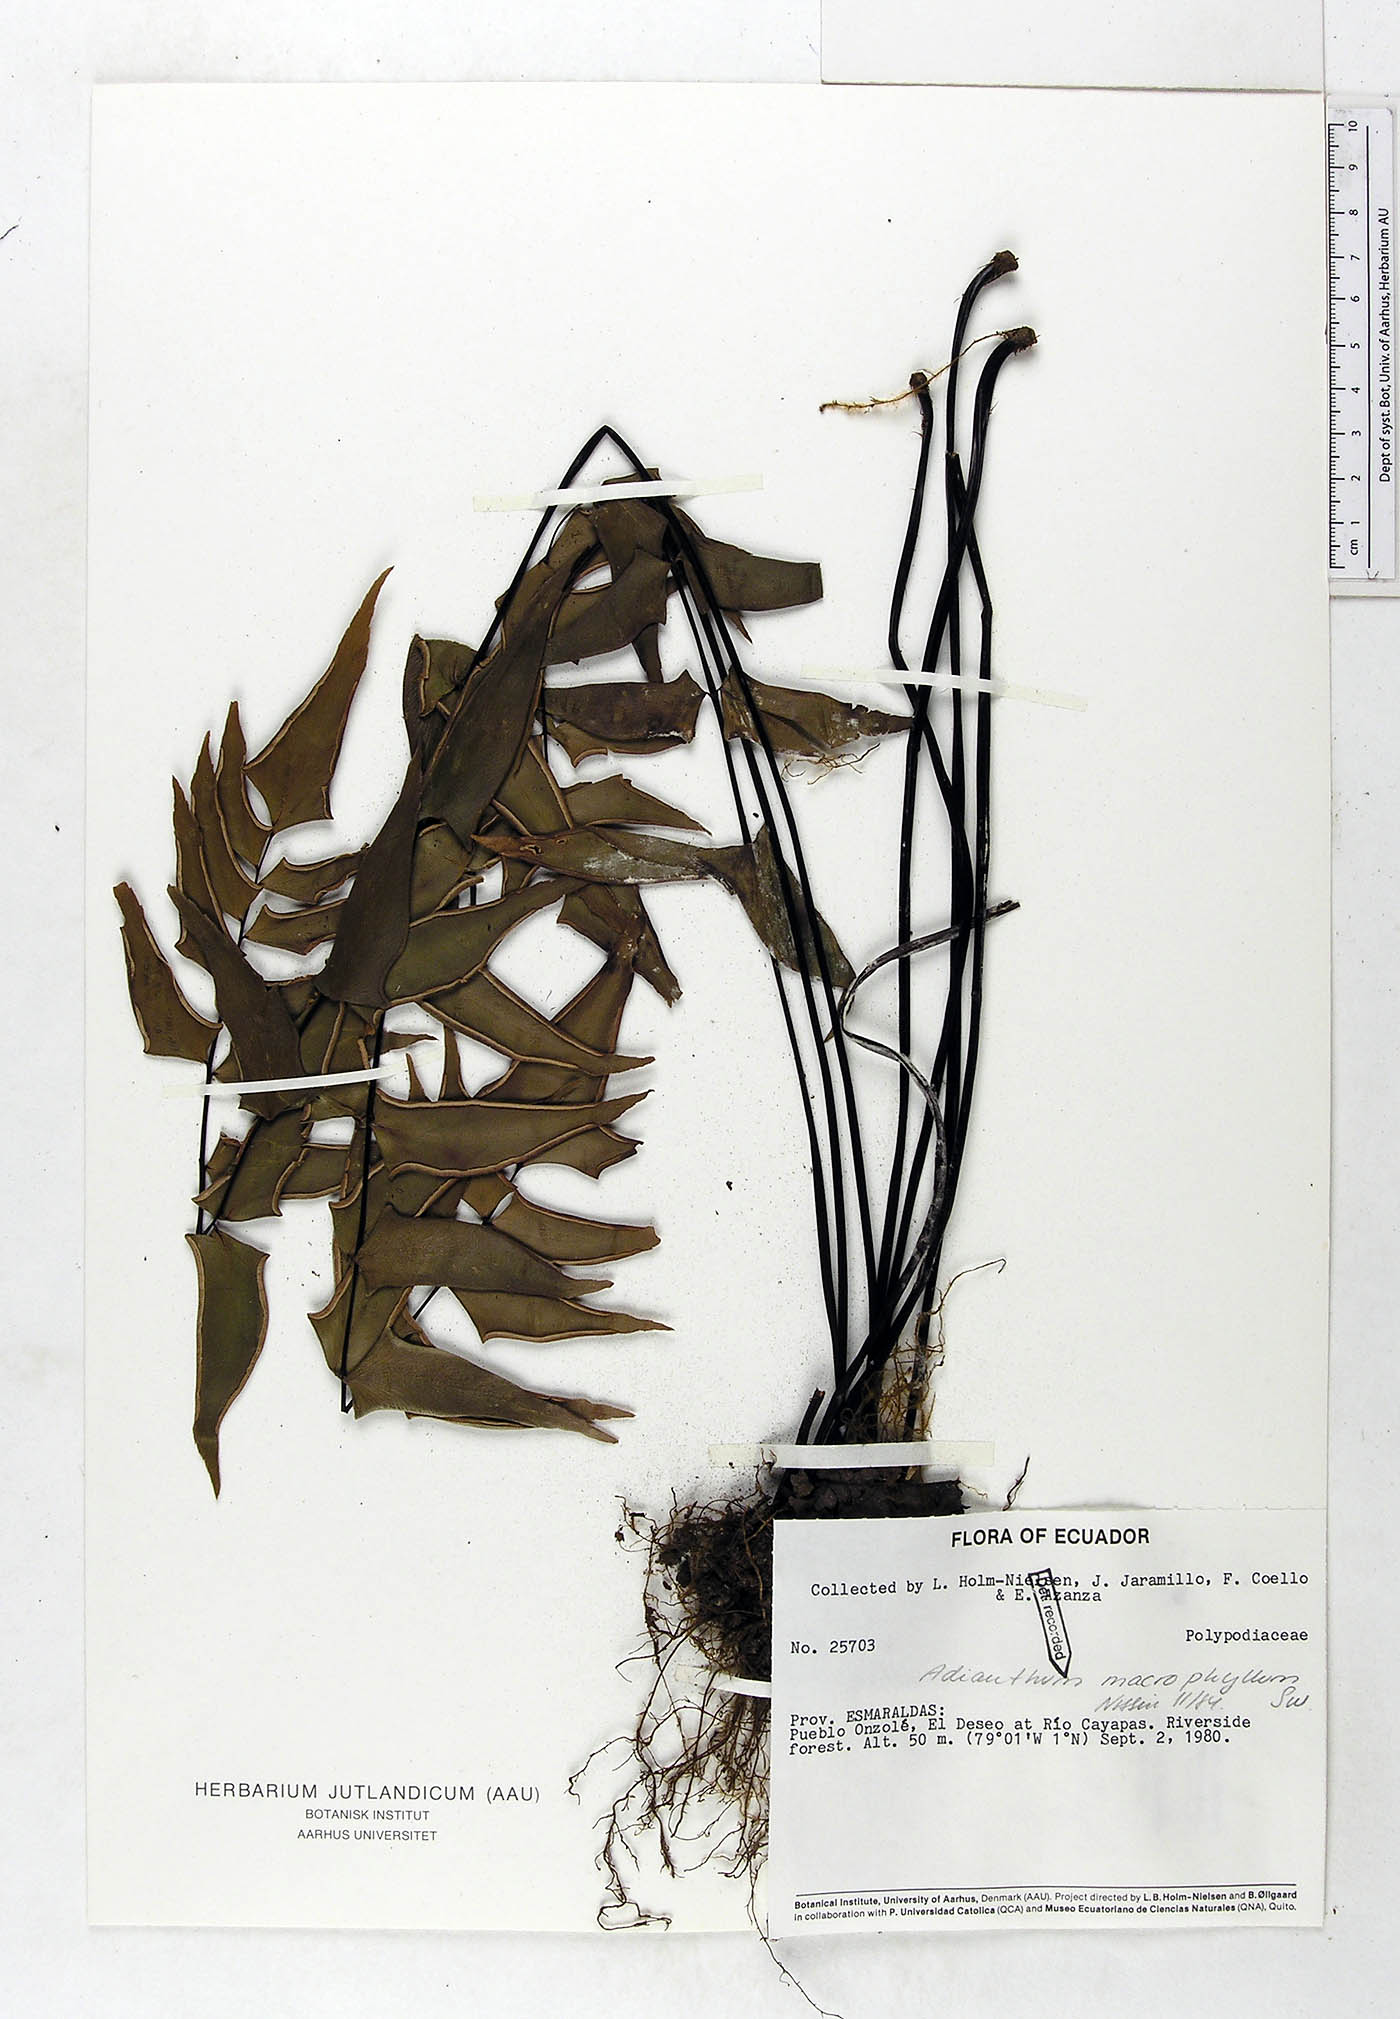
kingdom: Plantae
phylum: Tracheophyta
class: Polypodiopsida
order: Polypodiales
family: Pteridaceae
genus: Adiantum
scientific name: Adiantum macrophyllum
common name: Largeleaf maidenhair
